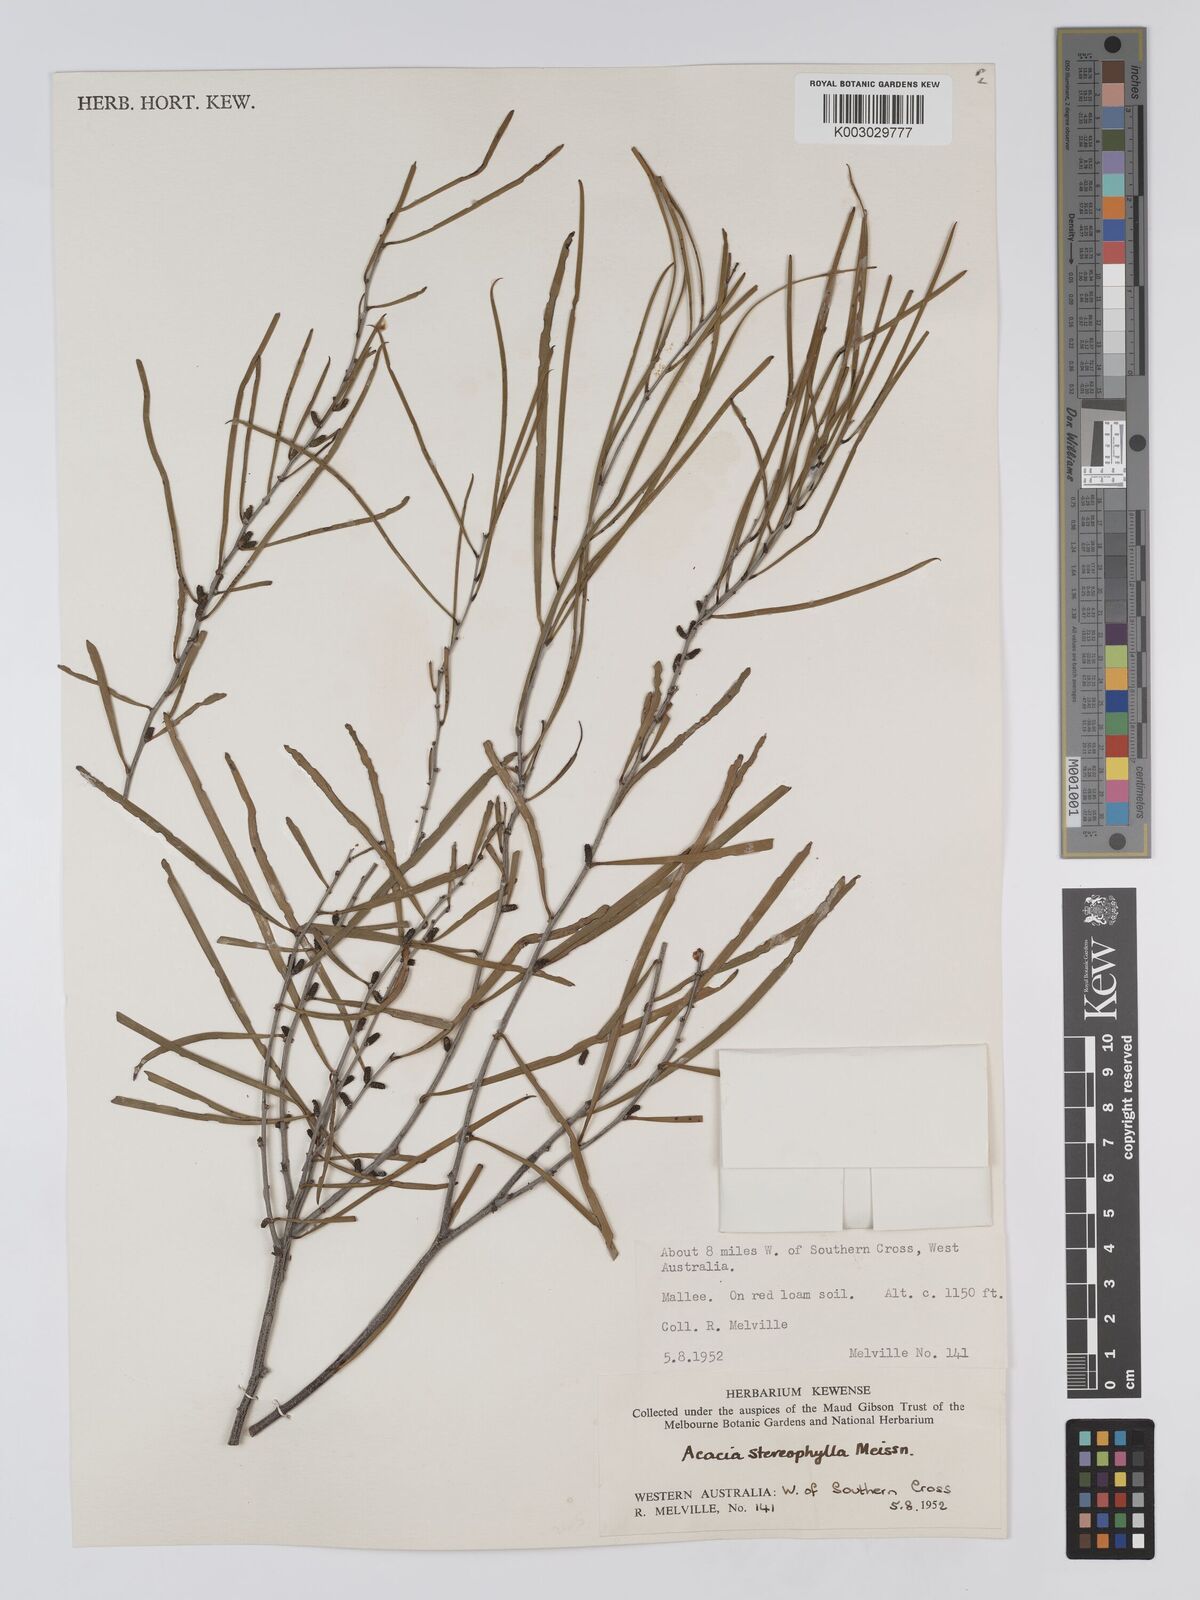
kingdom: Plantae
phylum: Tracheophyta
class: Magnoliopsida
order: Fabales
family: Fabaceae
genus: Acacia
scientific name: Acacia stereophylla
